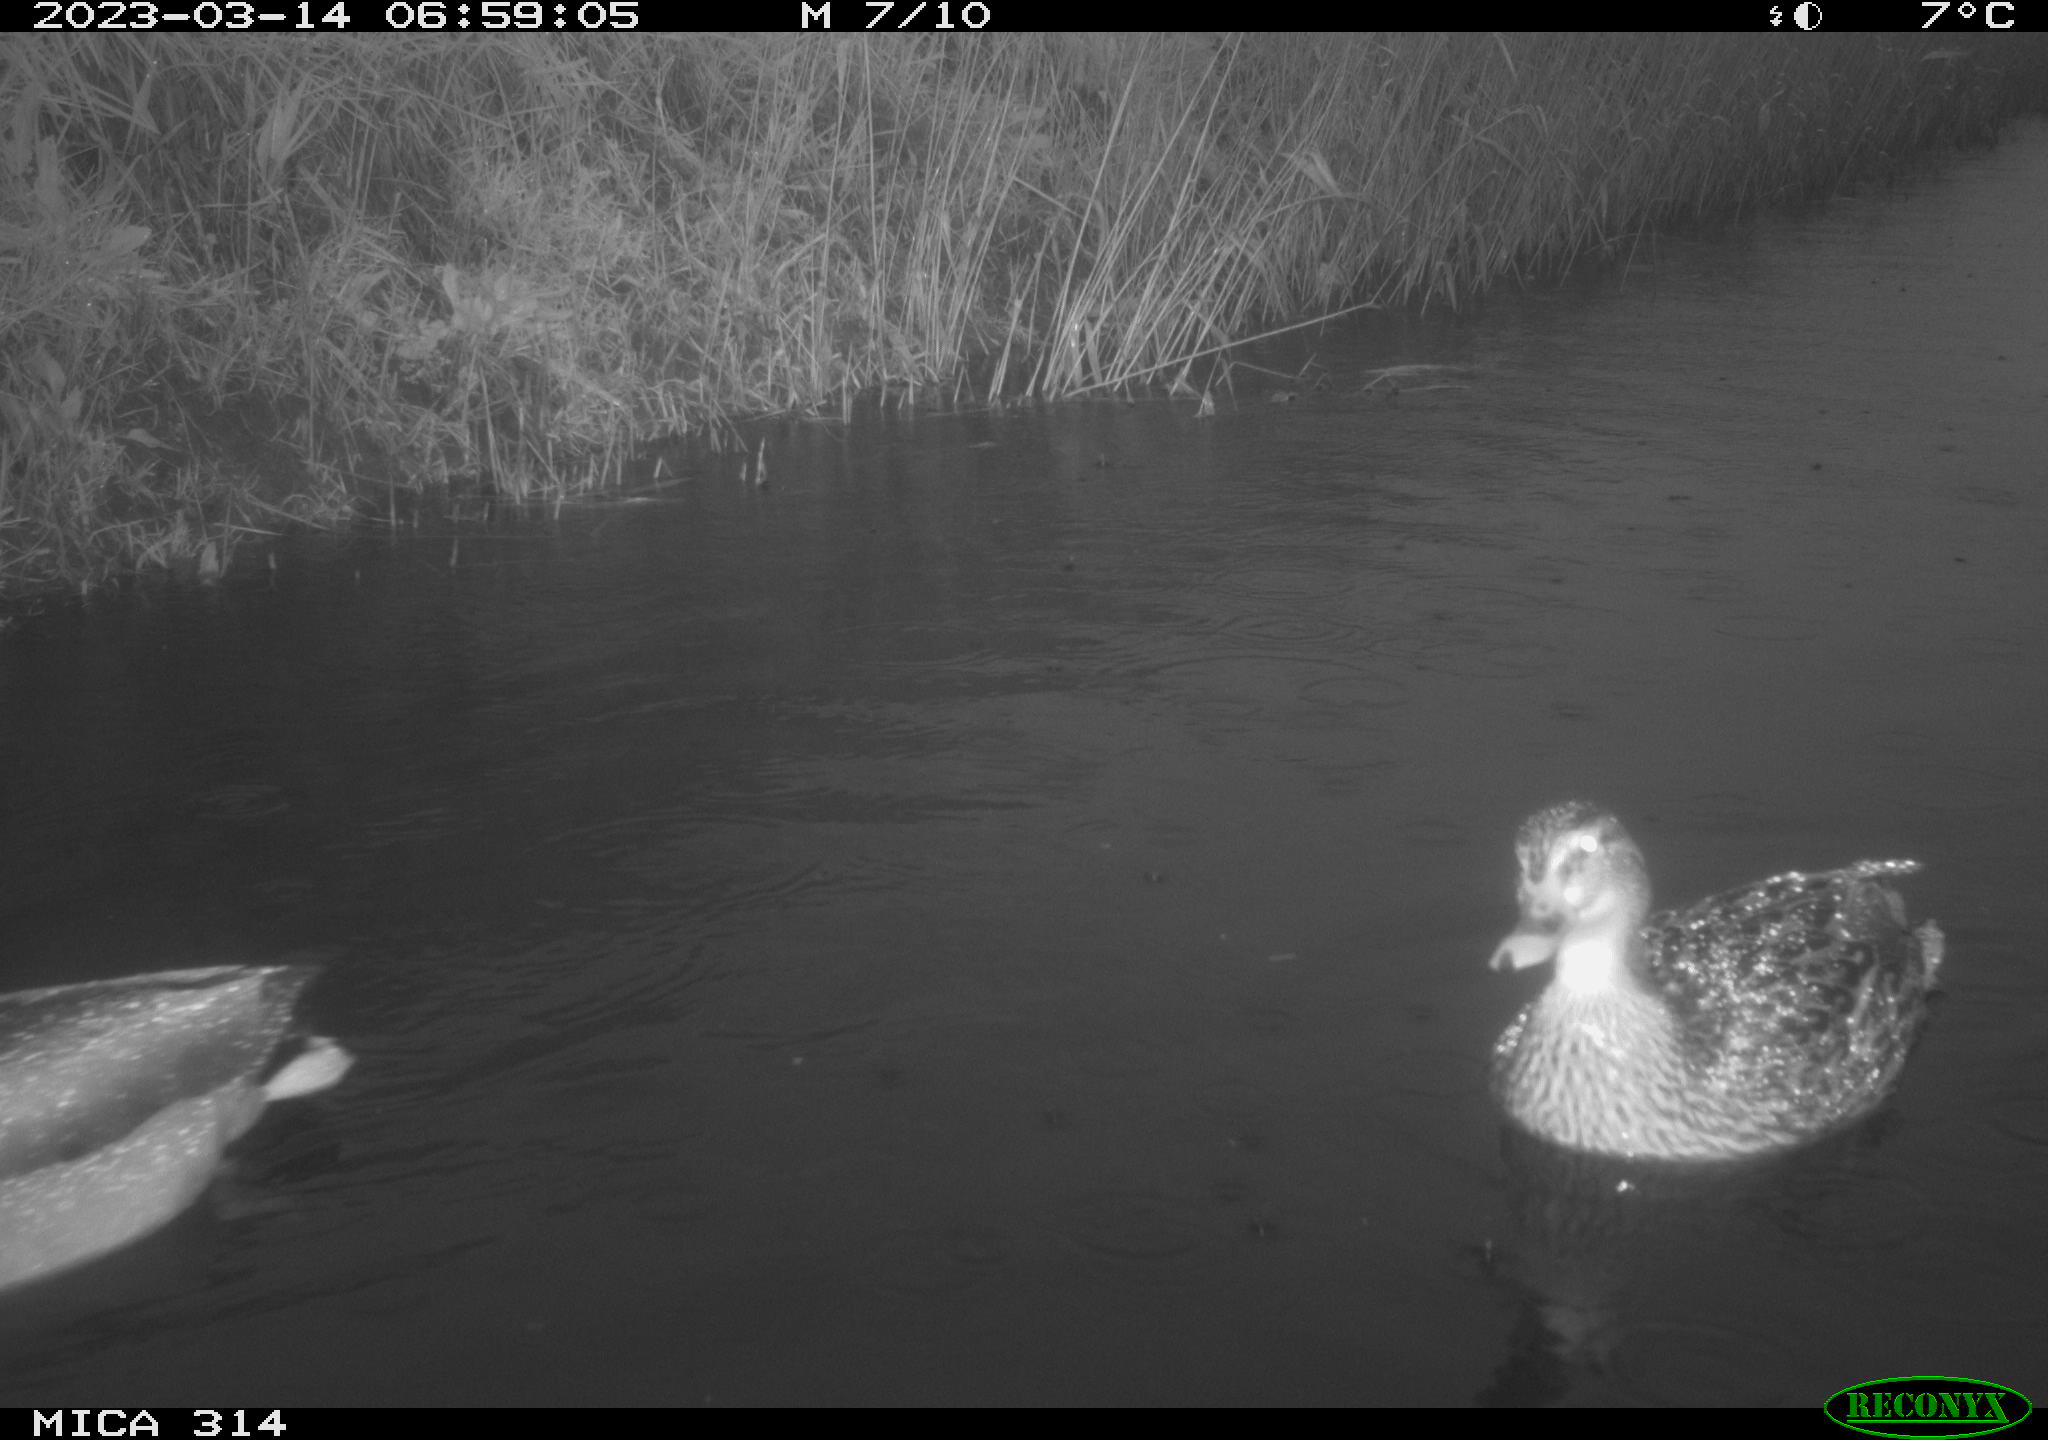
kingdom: Animalia
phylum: Chordata
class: Aves
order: Anseriformes
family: Anatidae
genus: Anas
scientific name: Anas
